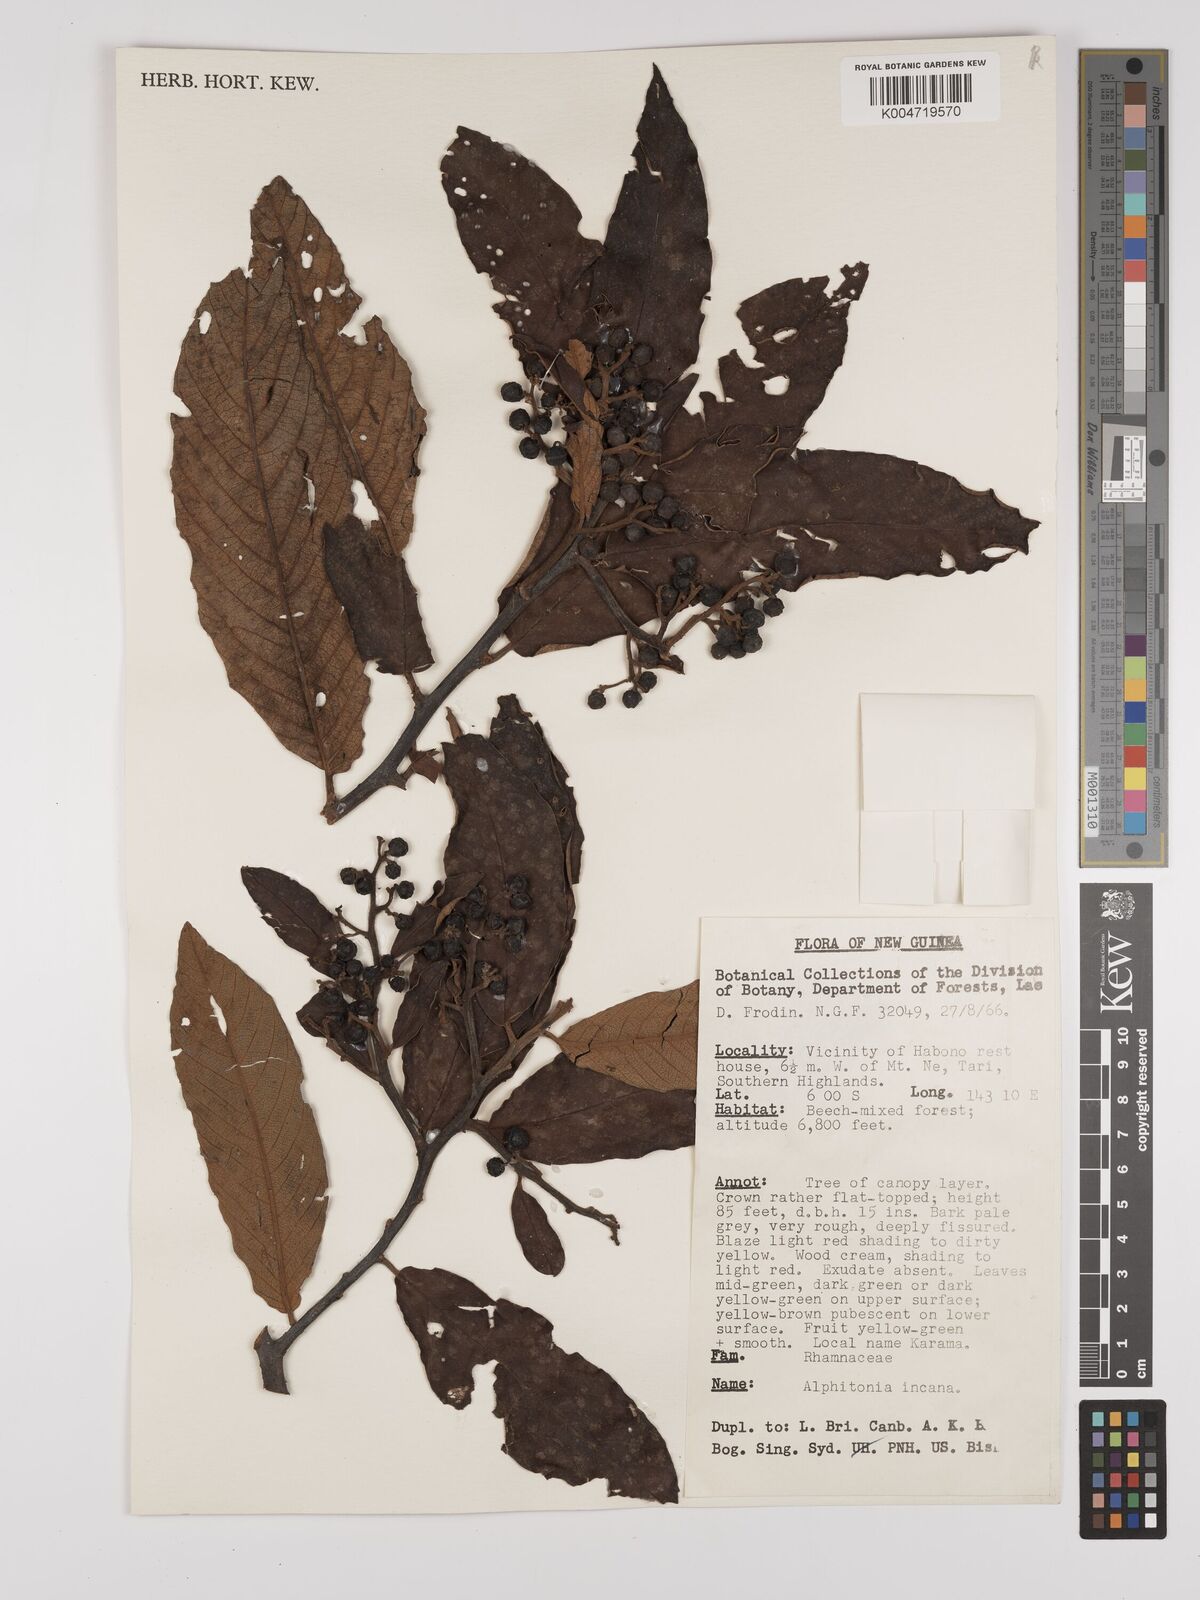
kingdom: Plantae
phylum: Tracheophyta
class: Magnoliopsida
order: Rosales
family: Rhamnaceae
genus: Alphitonia
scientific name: Alphitonia incana
